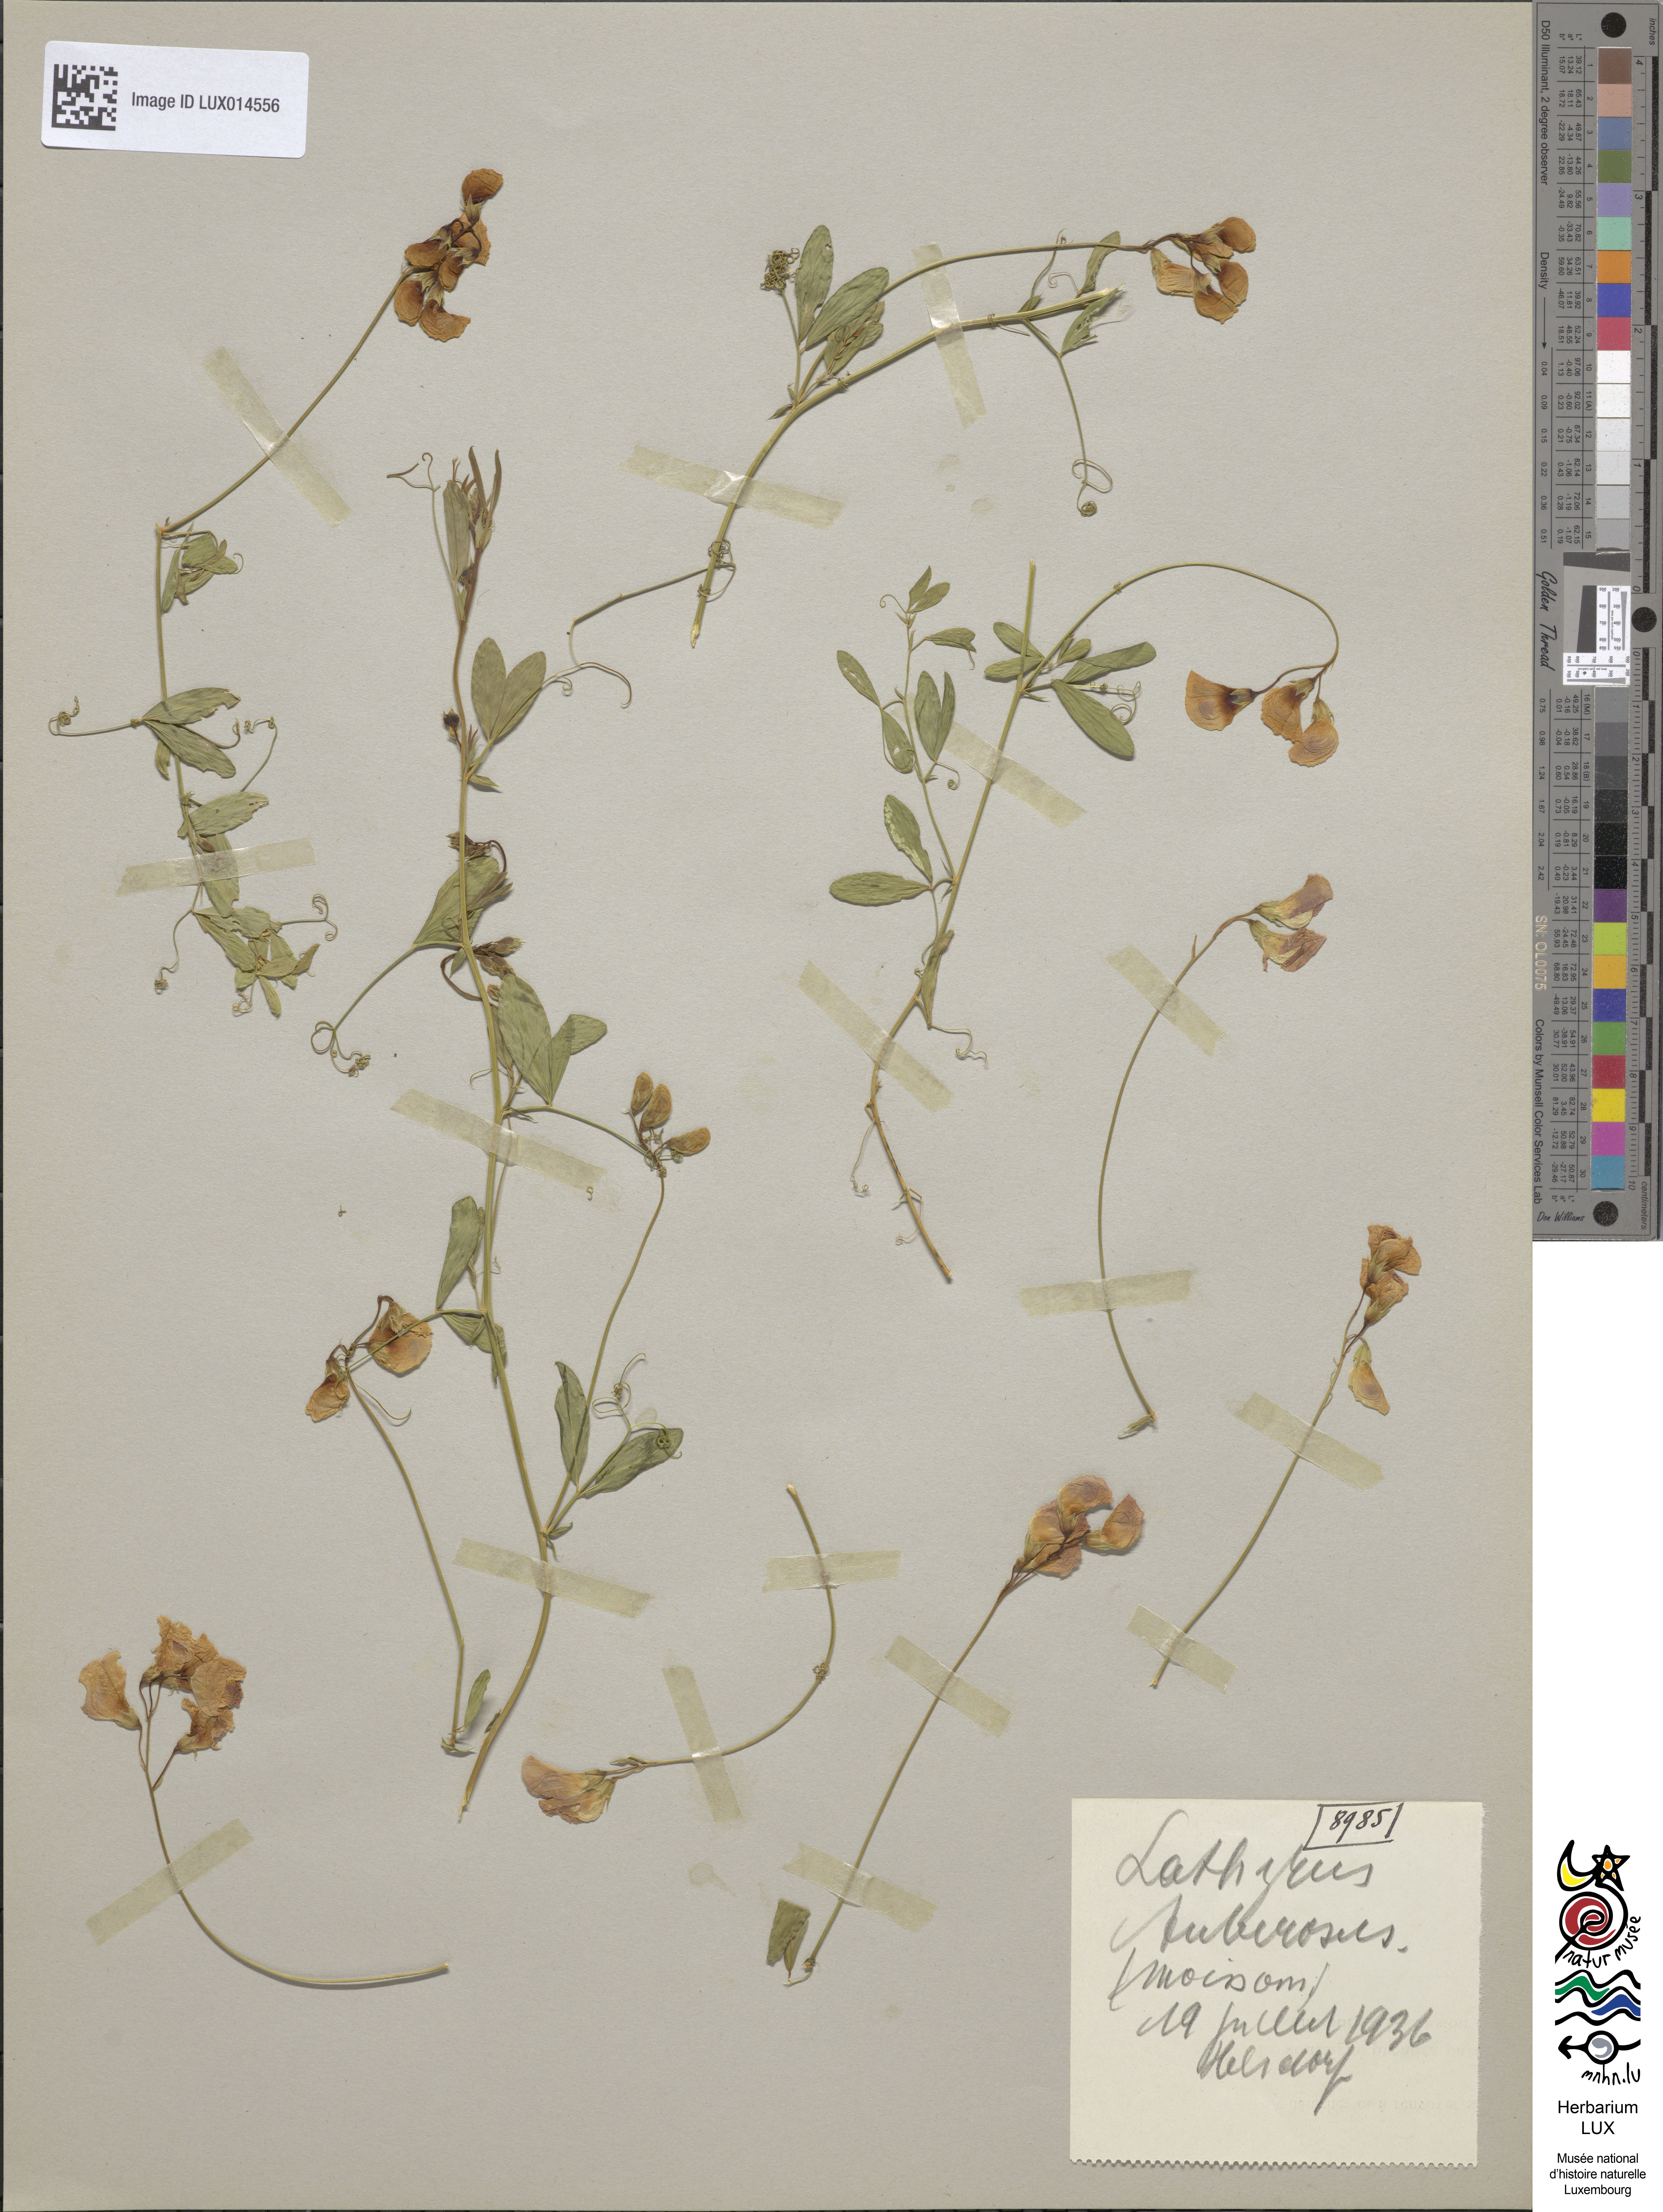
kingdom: Plantae
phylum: Tracheophyta
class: Magnoliopsida
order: Fabales
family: Fabaceae
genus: Lathyrus
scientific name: Lathyrus tuberosus
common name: Tuberous pea
